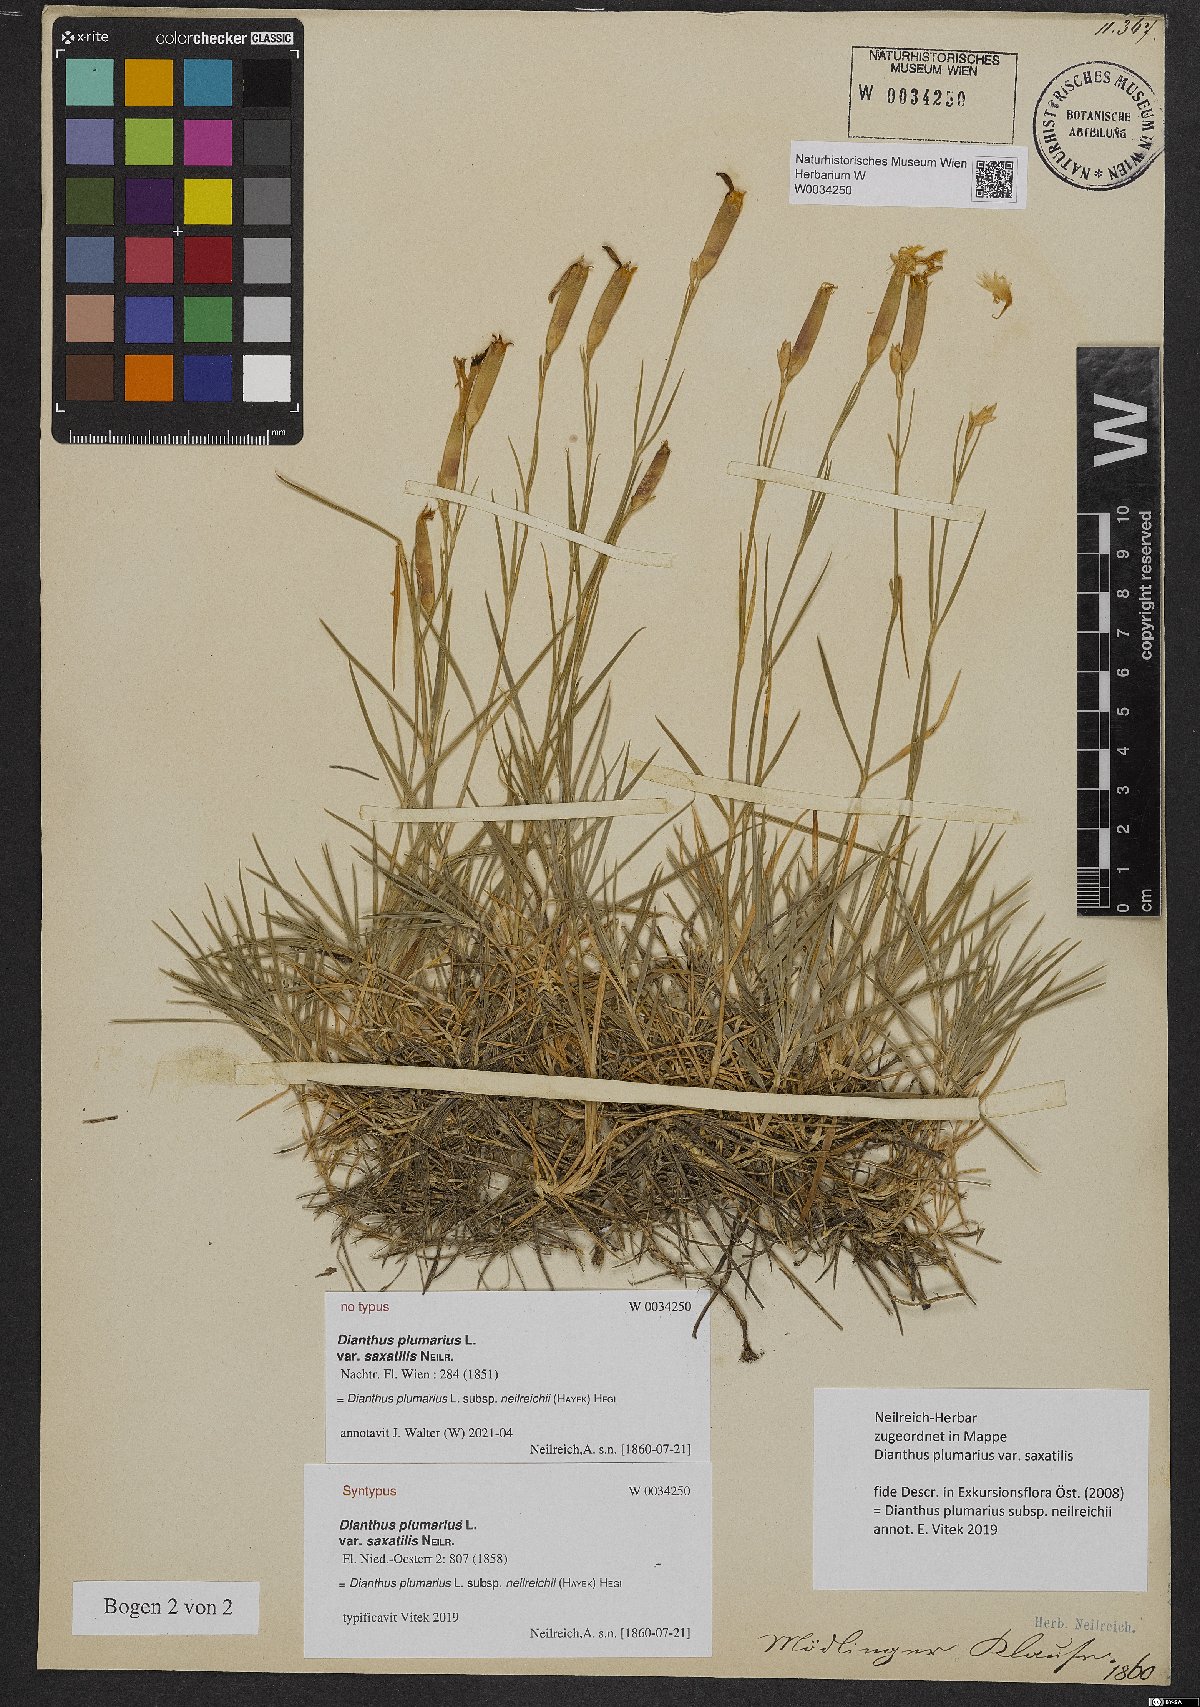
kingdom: Plantae
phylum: Tracheophyta
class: Magnoliopsida
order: Caryophyllales
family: Caryophyllaceae
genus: Dianthus
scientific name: Dianthus plumarius
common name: Pink
